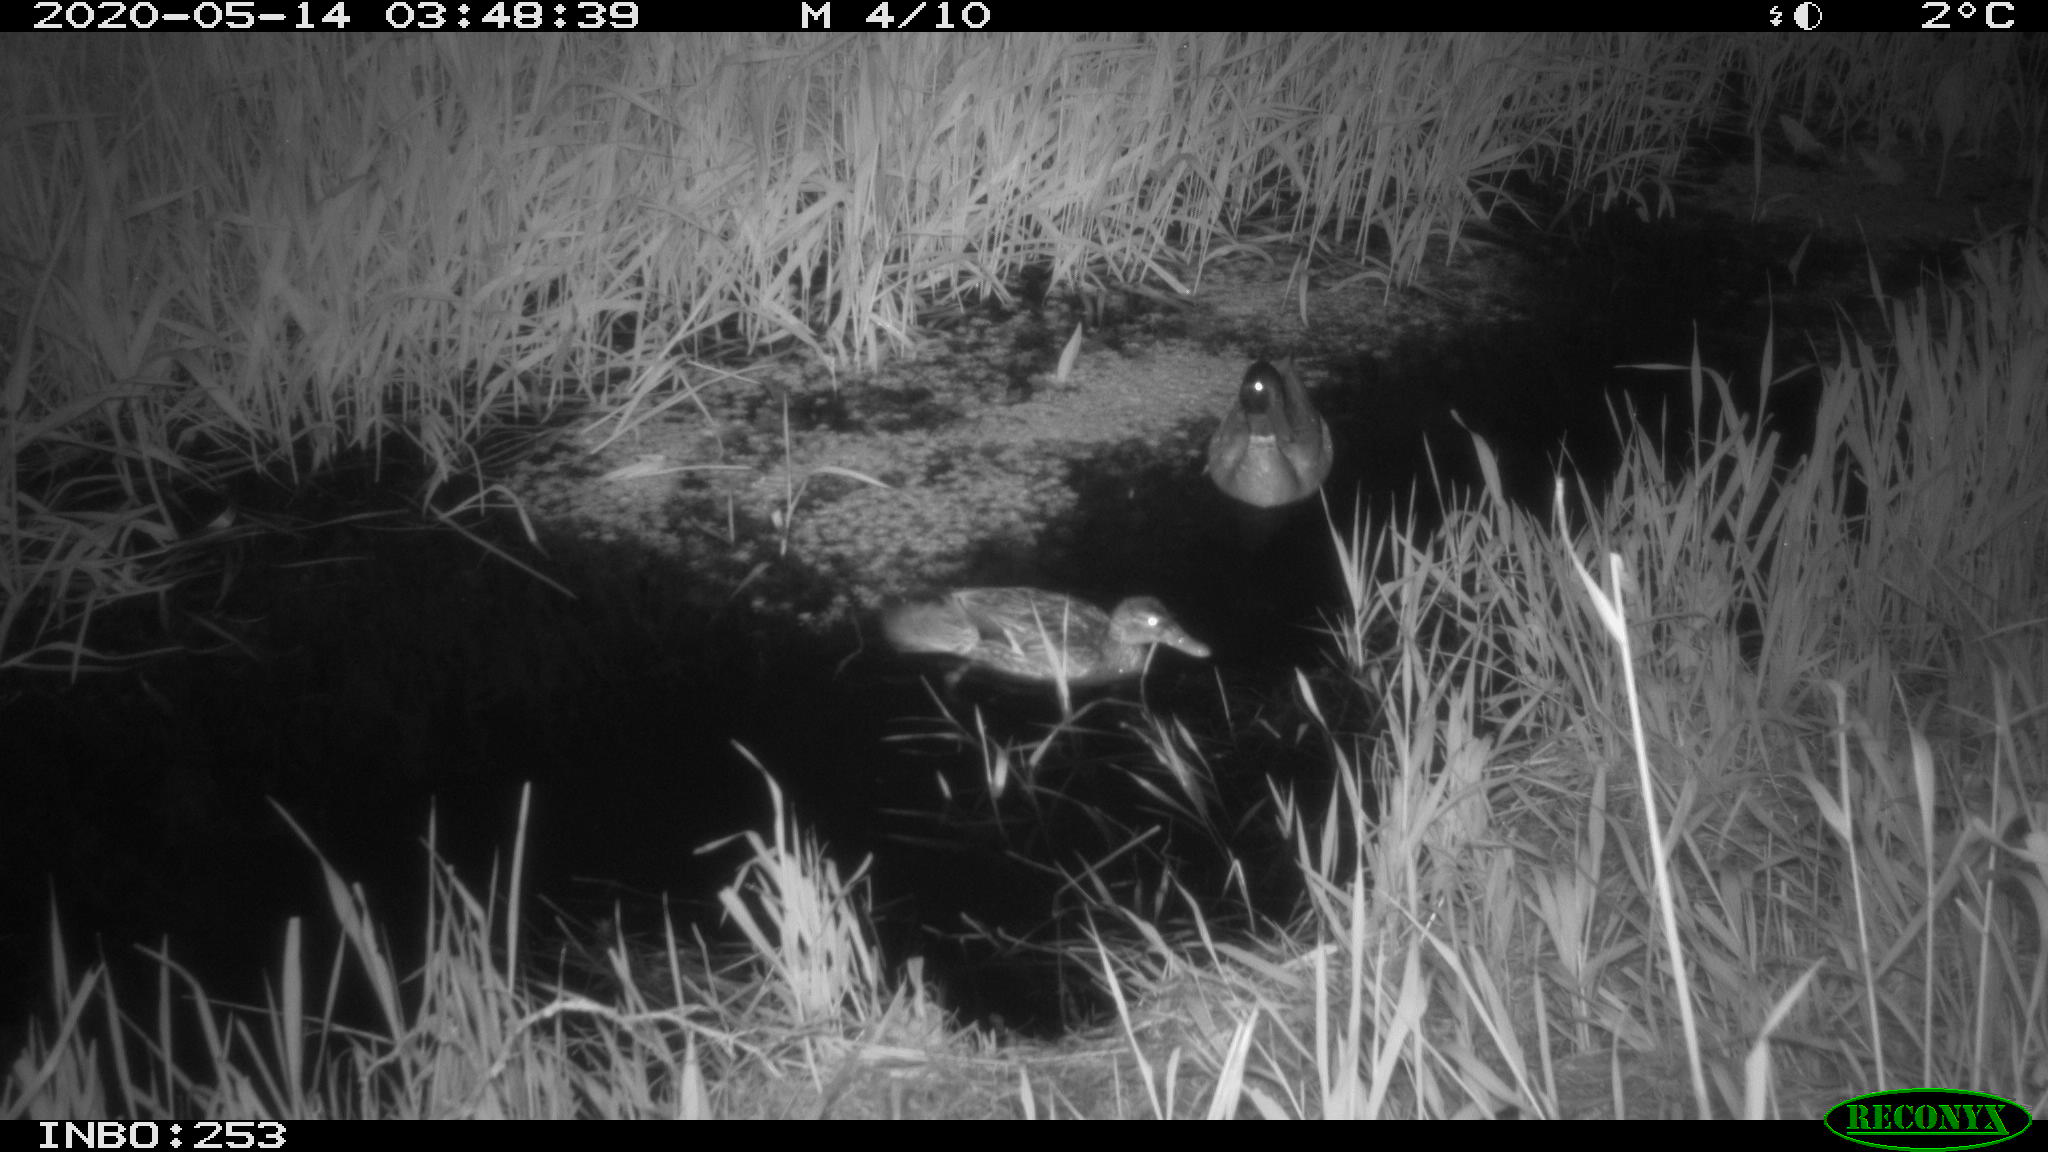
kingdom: Animalia
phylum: Chordata
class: Aves
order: Anseriformes
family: Anatidae
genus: Anas
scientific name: Anas platyrhynchos
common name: Mallard
